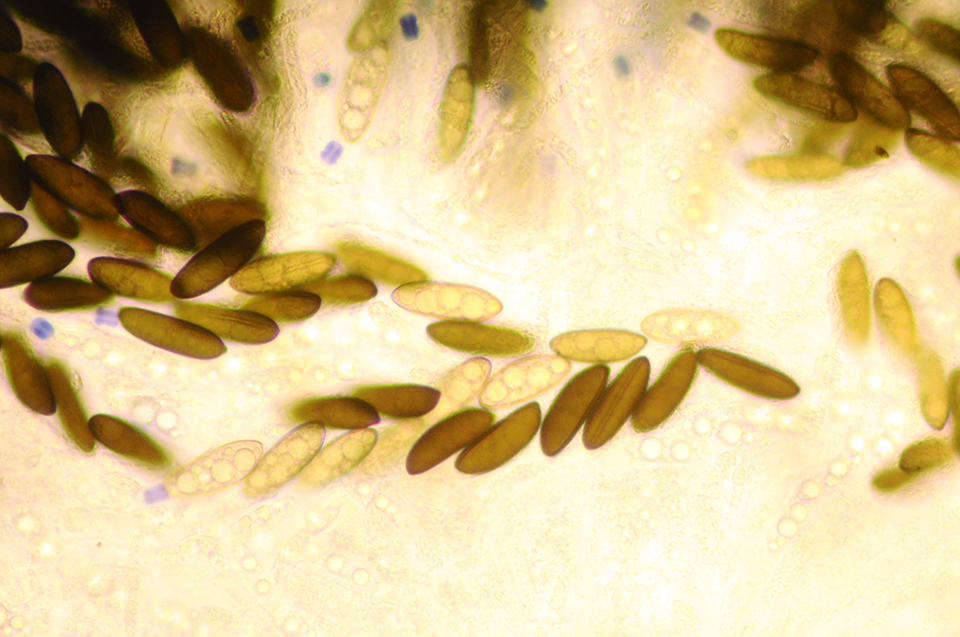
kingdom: Fungi
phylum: Ascomycota
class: Sordariomycetes
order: Xylariales
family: Xylariaceae
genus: Rosellinia
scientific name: Rosellinia marcucciana
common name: måtteløs kulkaviar
